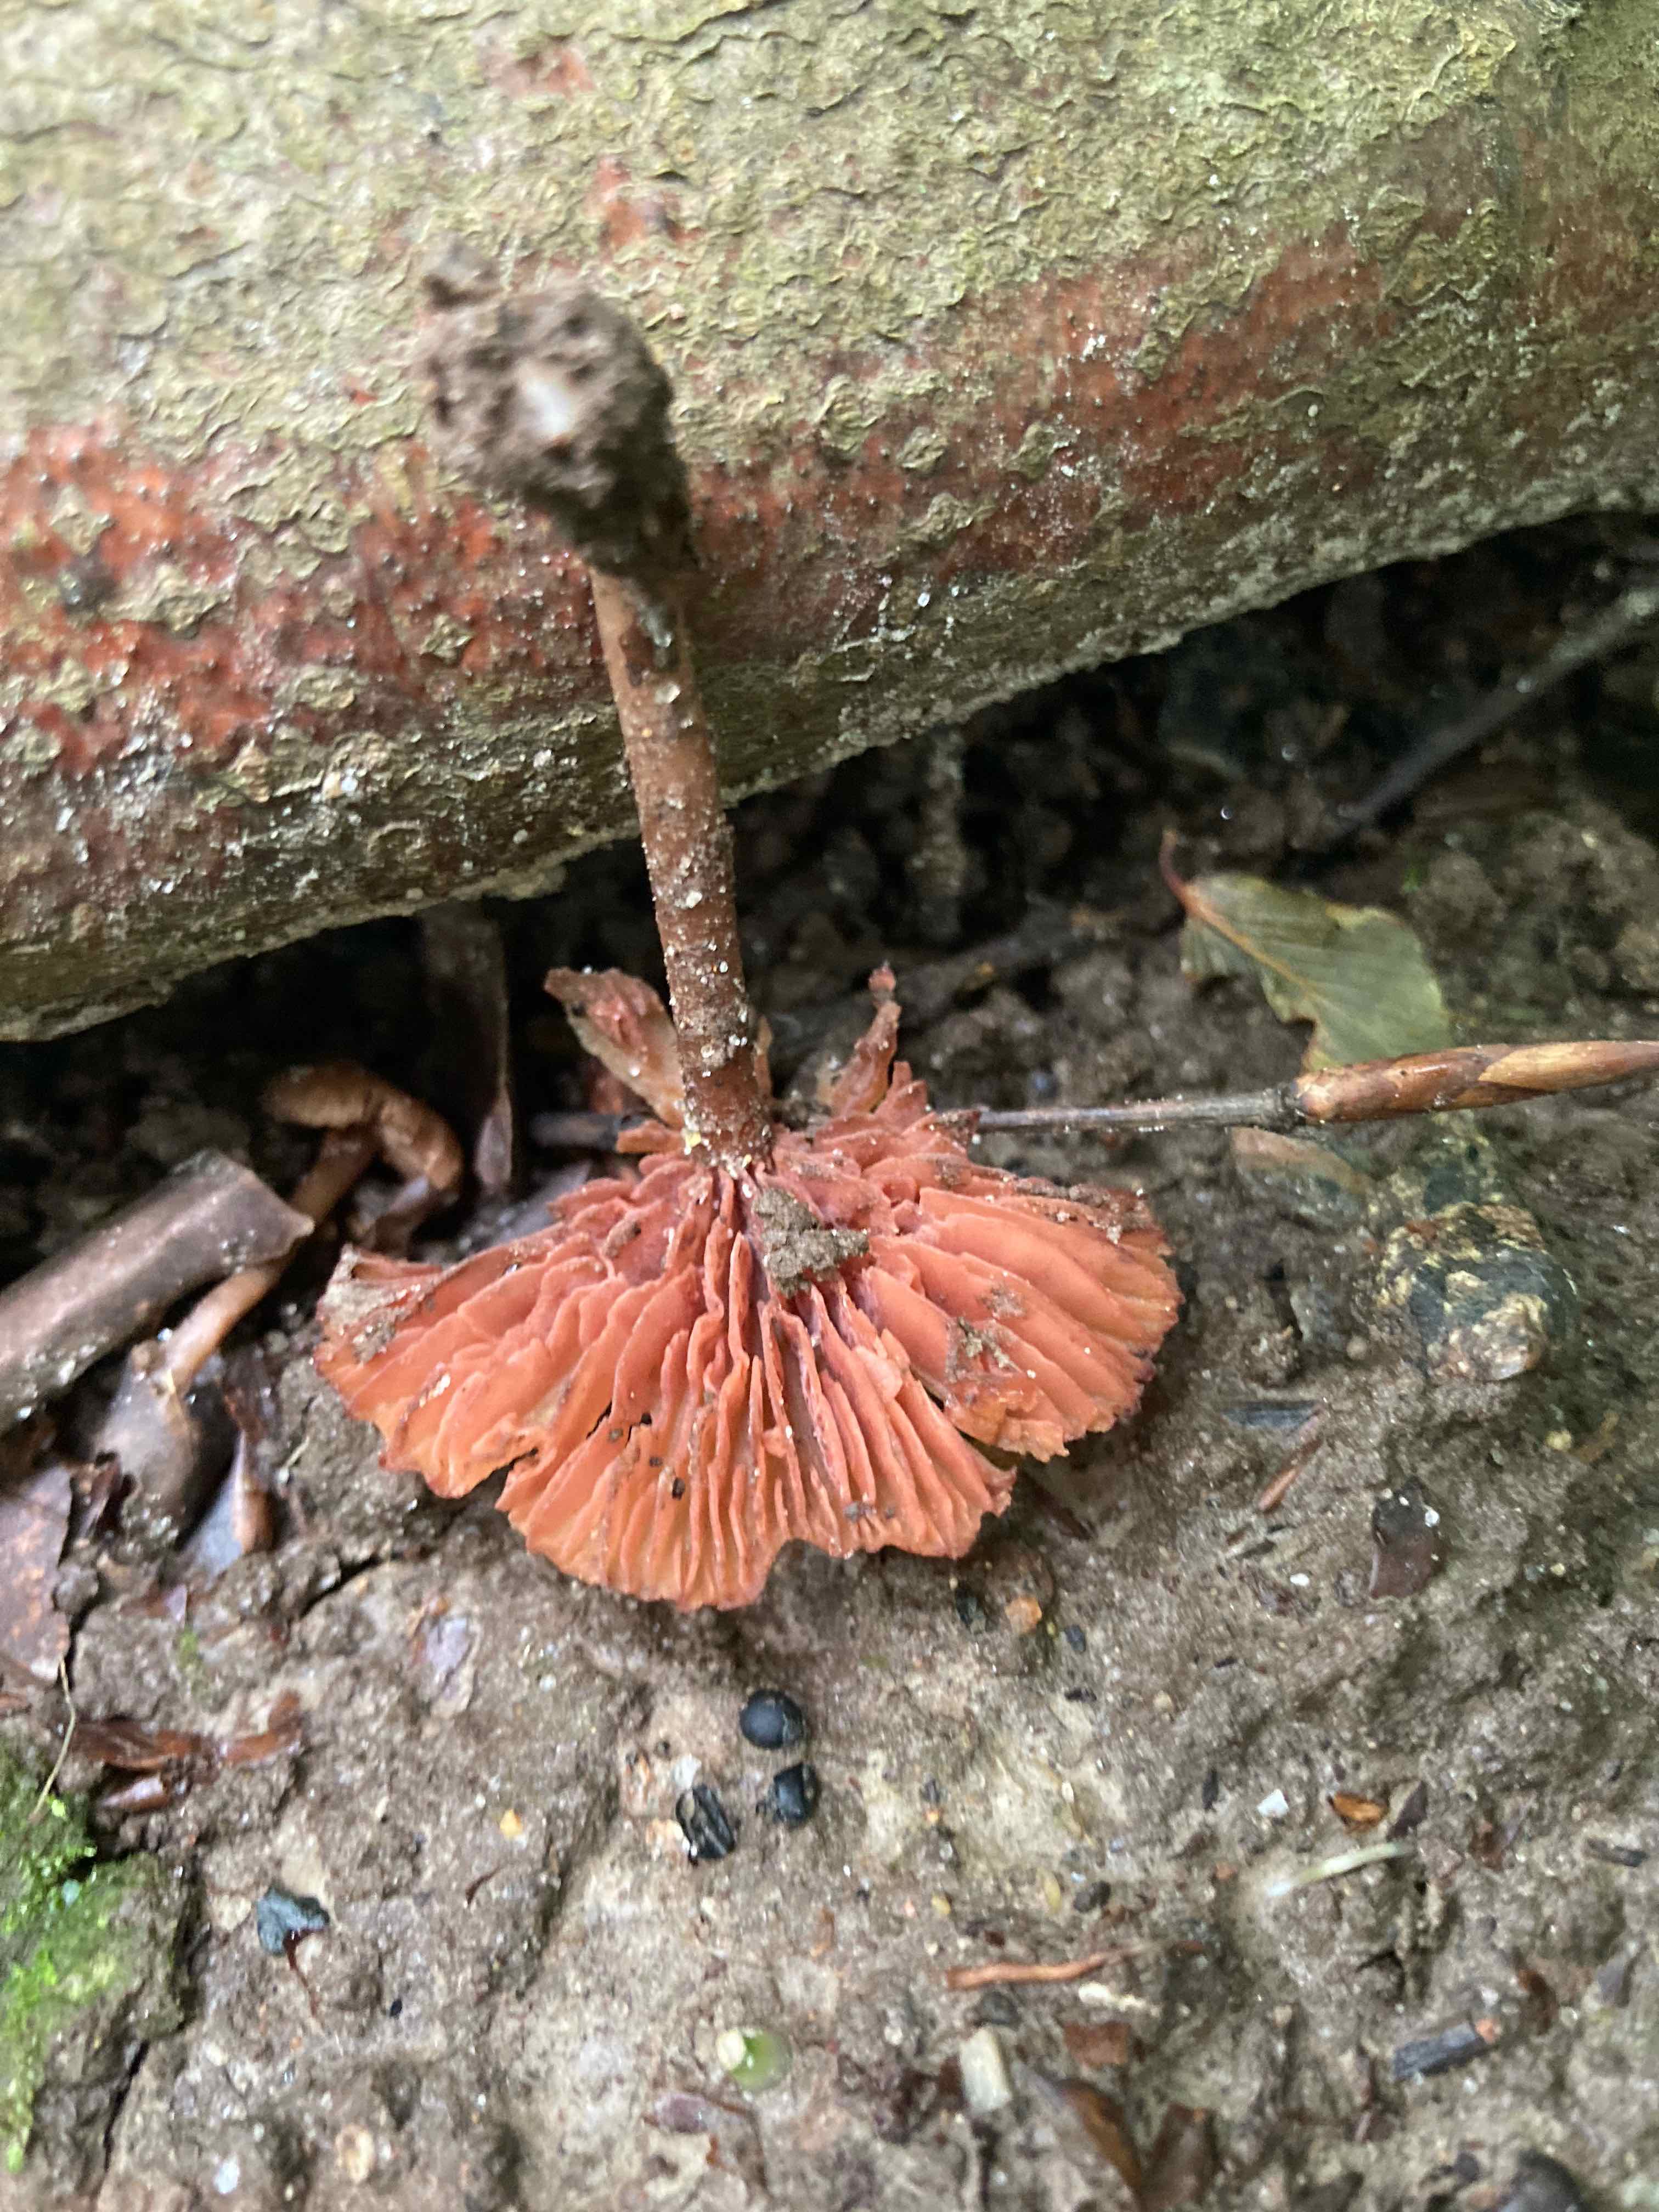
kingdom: Fungi
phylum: Basidiomycota
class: Agaricomycetes
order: Agaricales
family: Hydnangiaceae
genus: Laccaria
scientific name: Laccaria
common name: ametysthat
